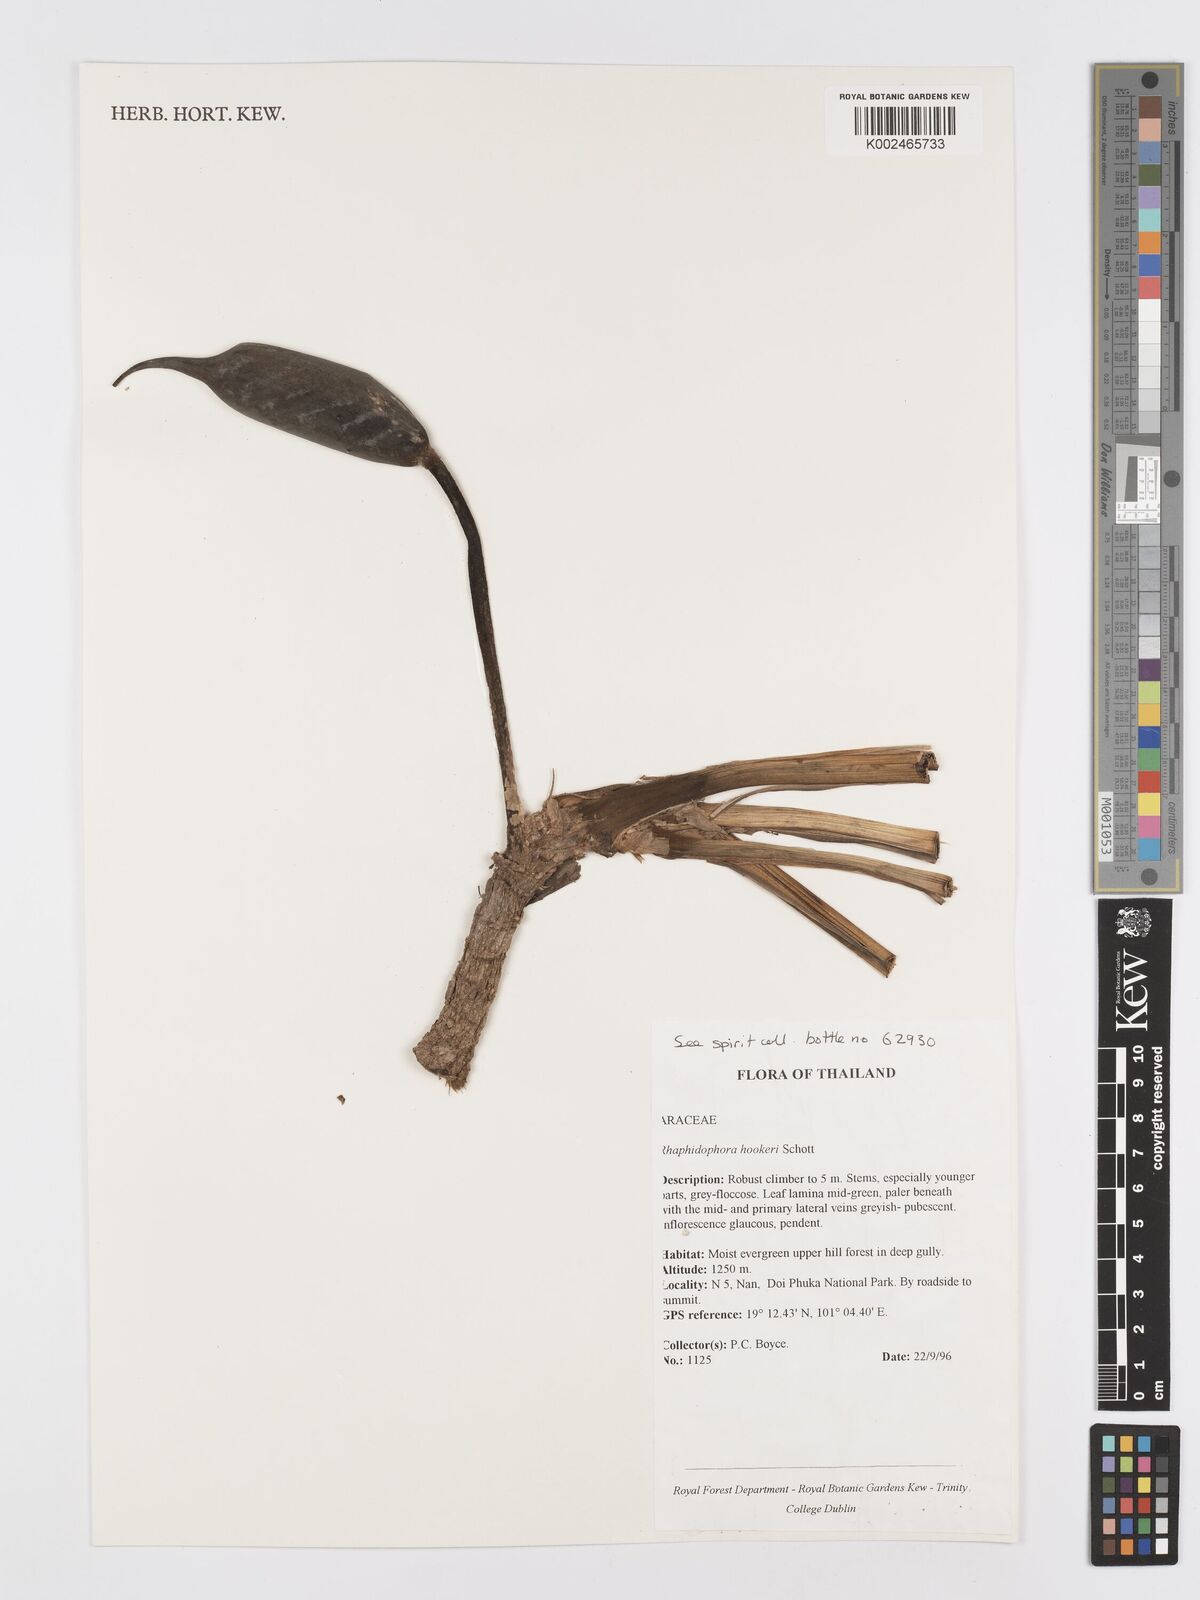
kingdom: Plantae
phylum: Tracheophyta
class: Liliopsida
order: Alismatales
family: Araceae
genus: Rhaphidophora
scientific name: Rhaphidophora hookeri
